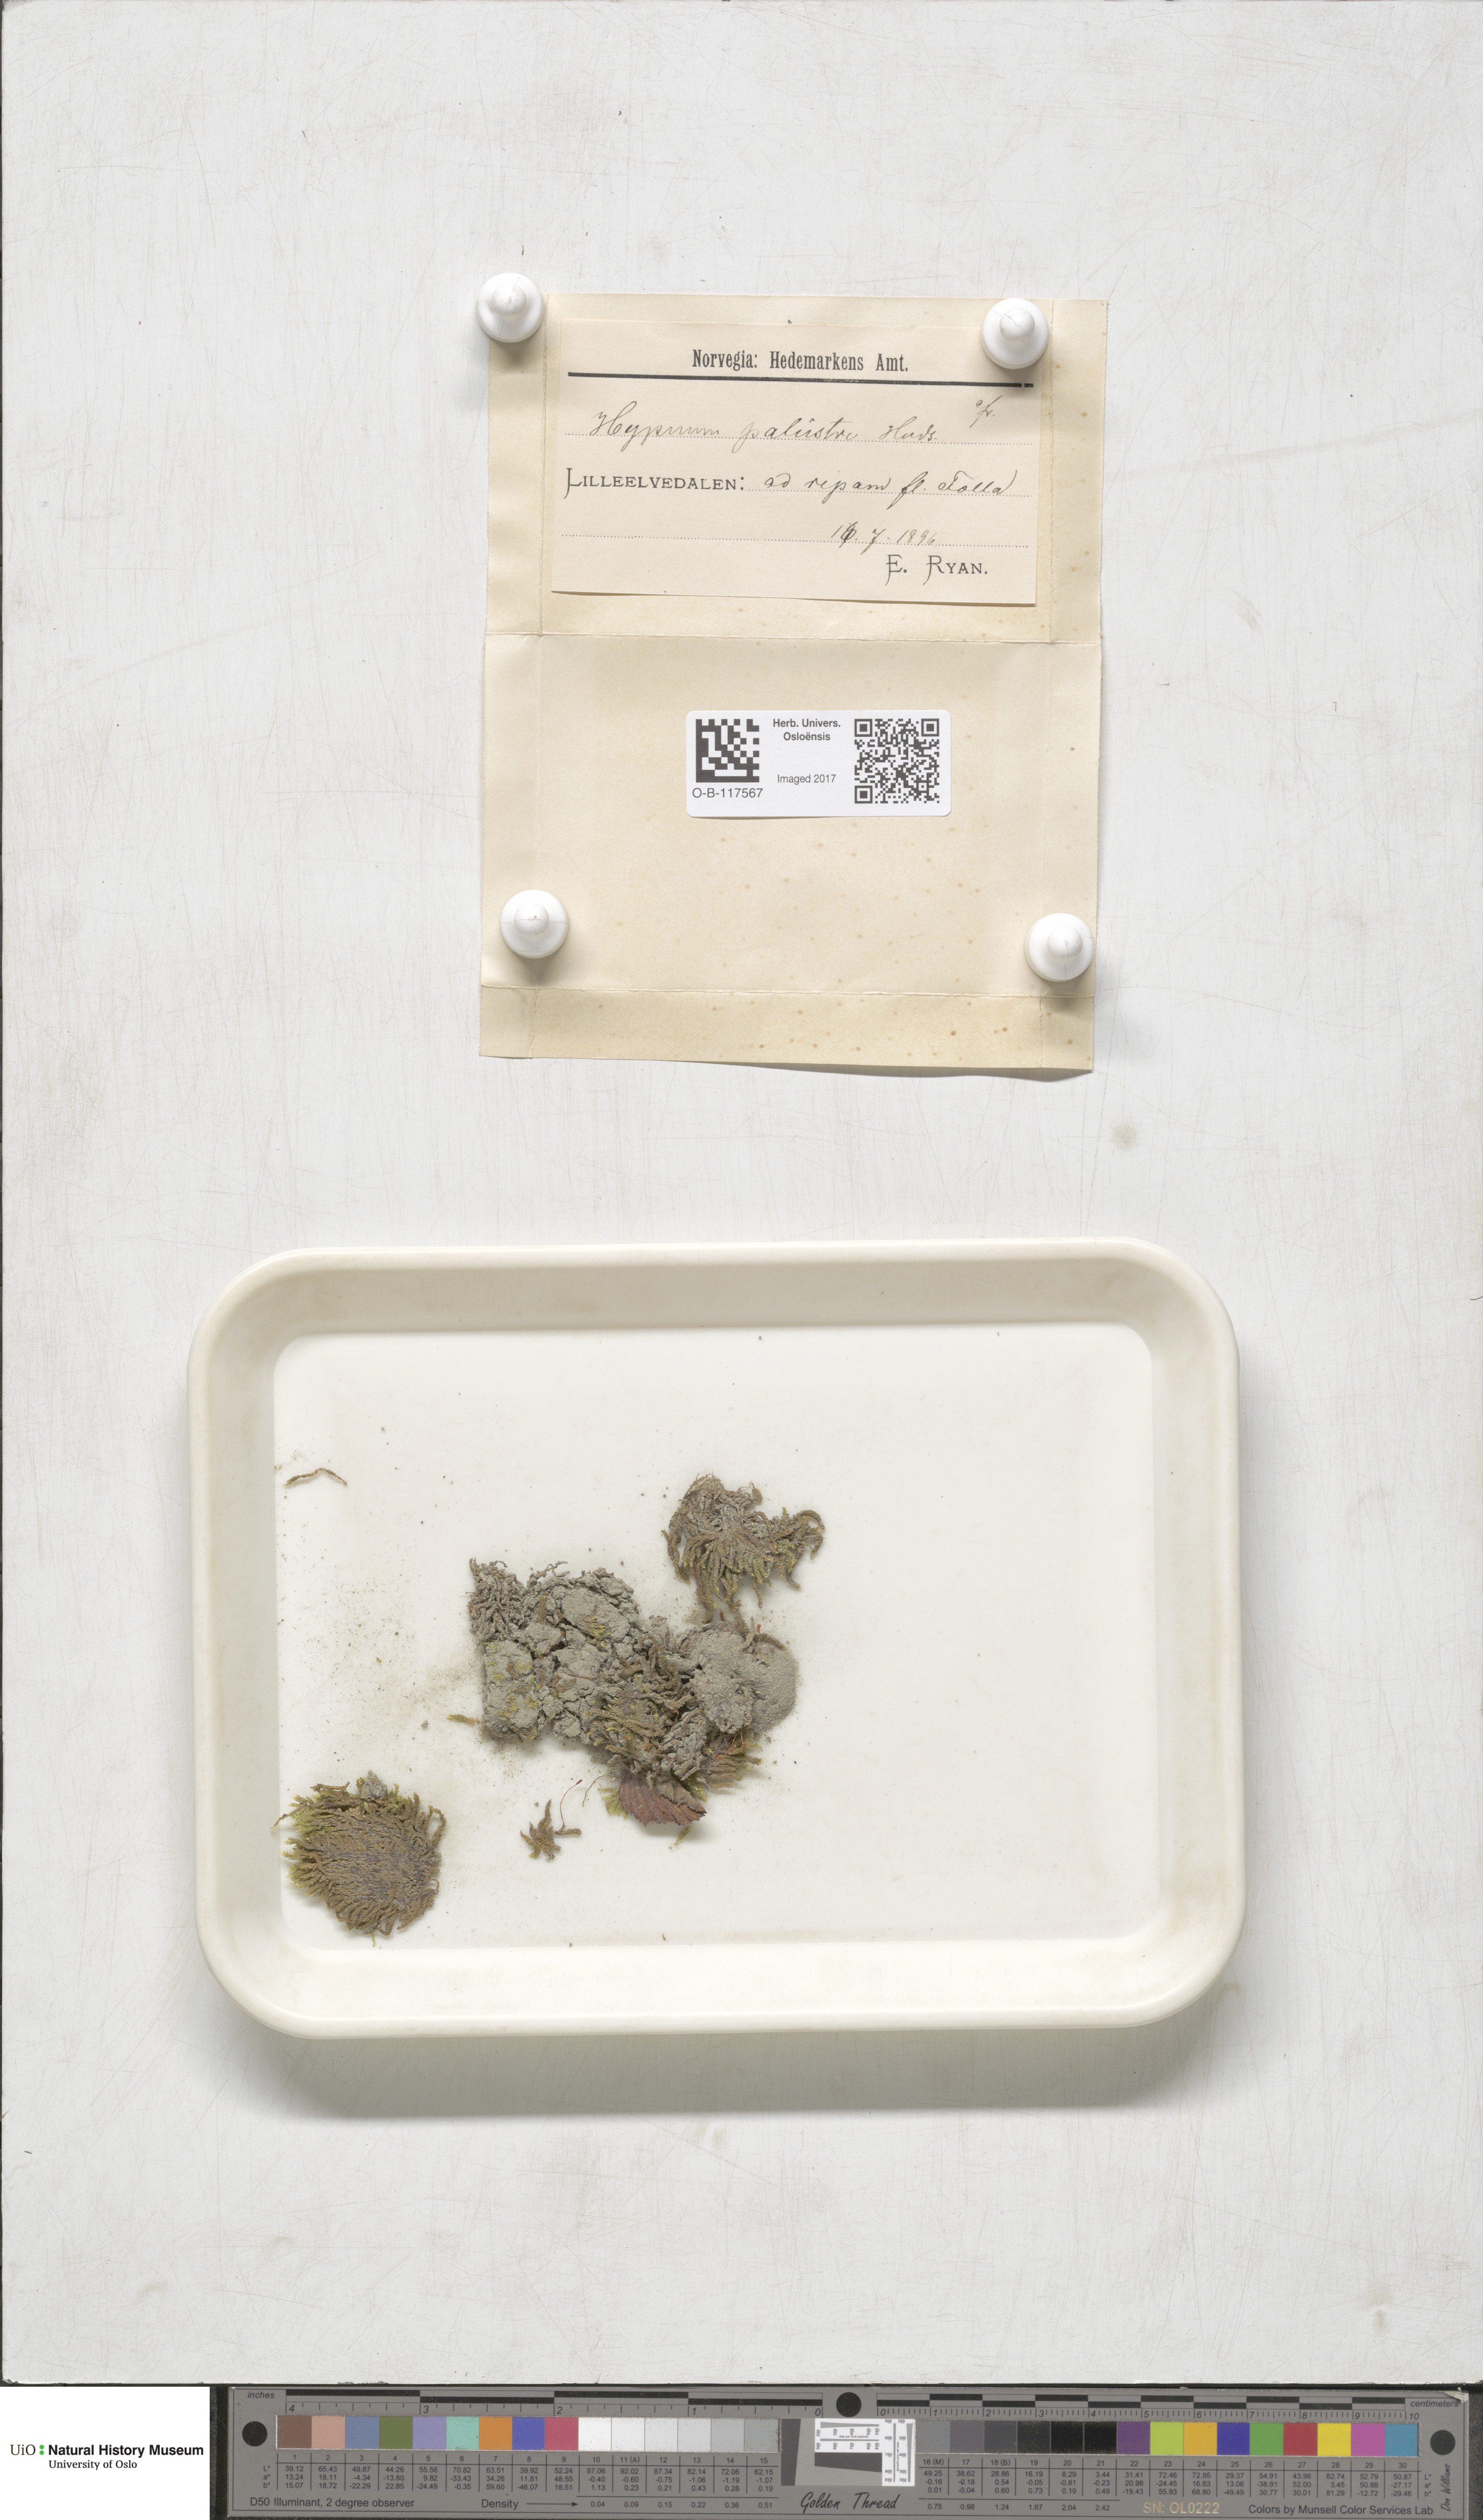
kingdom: Plantae
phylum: Bryophyta
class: Bryopsida
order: Hypnales
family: Amblystegiaceae
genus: Hygrohypnum
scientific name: Hygrohypnum luridum
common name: Drab brook moss
